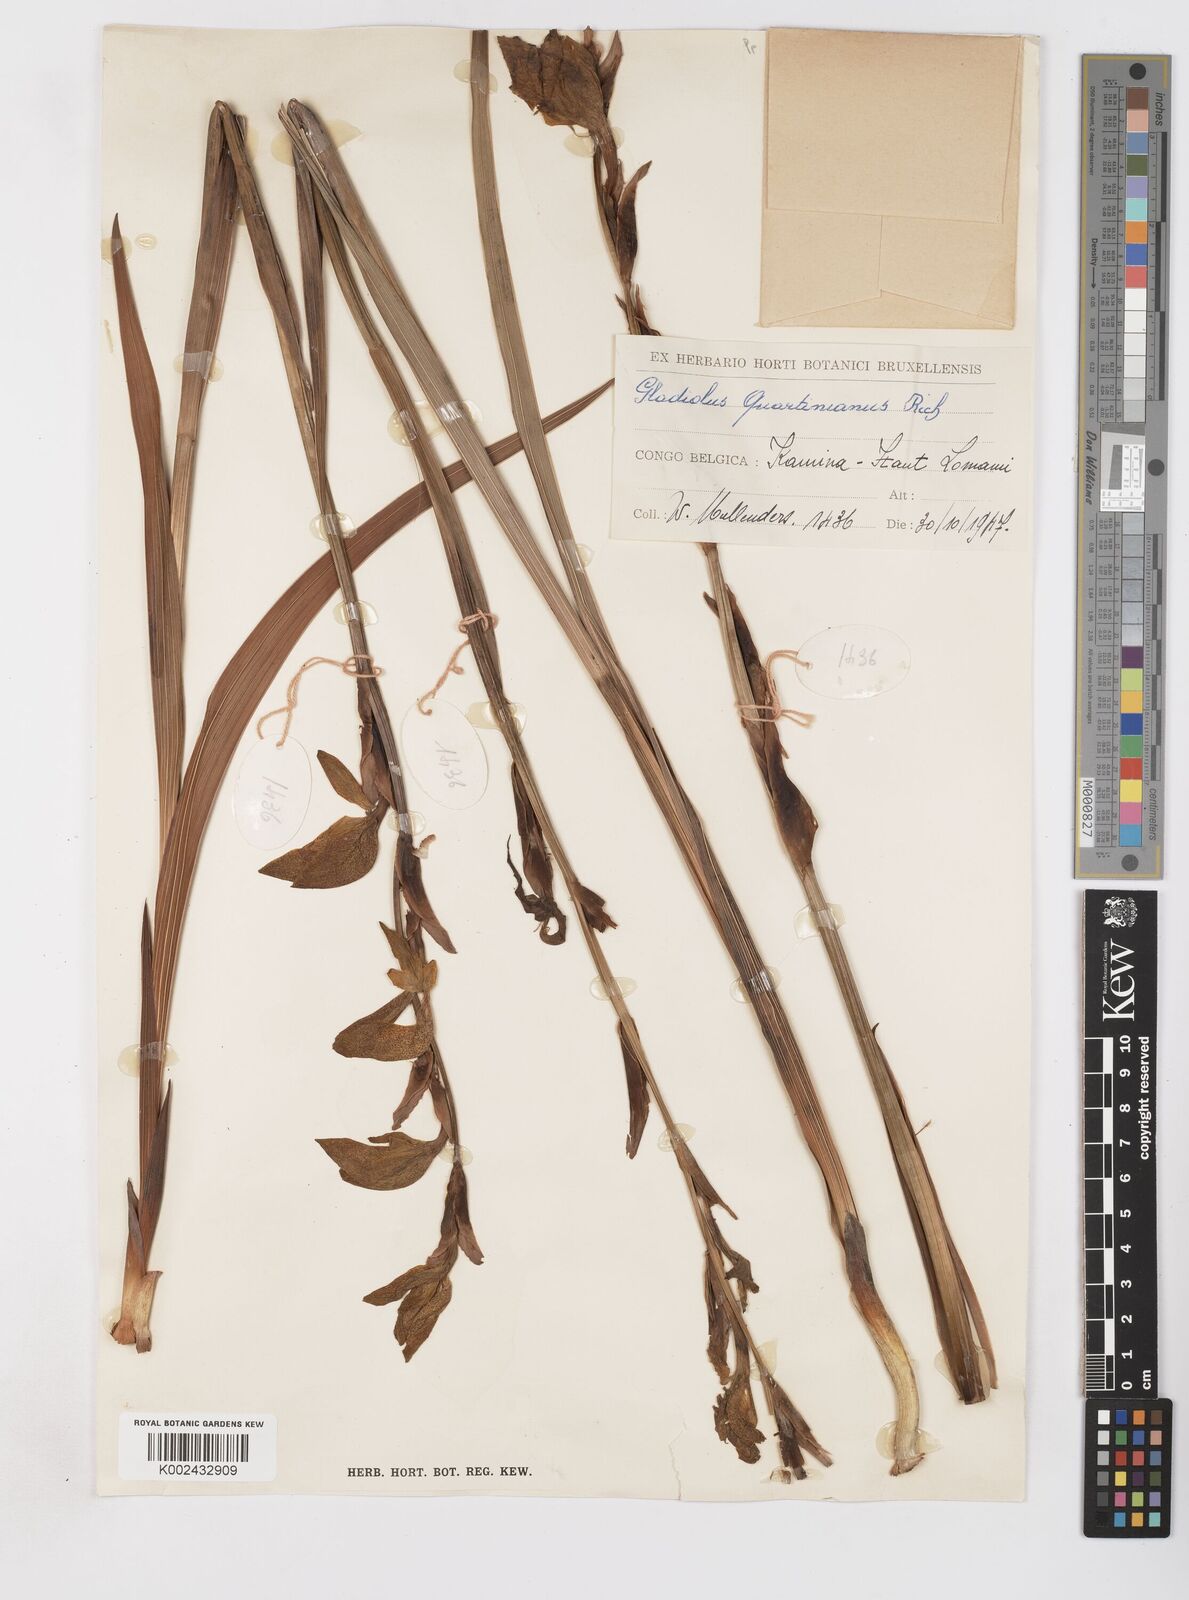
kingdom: Plantae
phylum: Tracheophyta
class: Liliopsida
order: Asparagales
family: Iridaceae
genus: Gladiolus
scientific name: Gladiolus dalenii
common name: Cornflag
